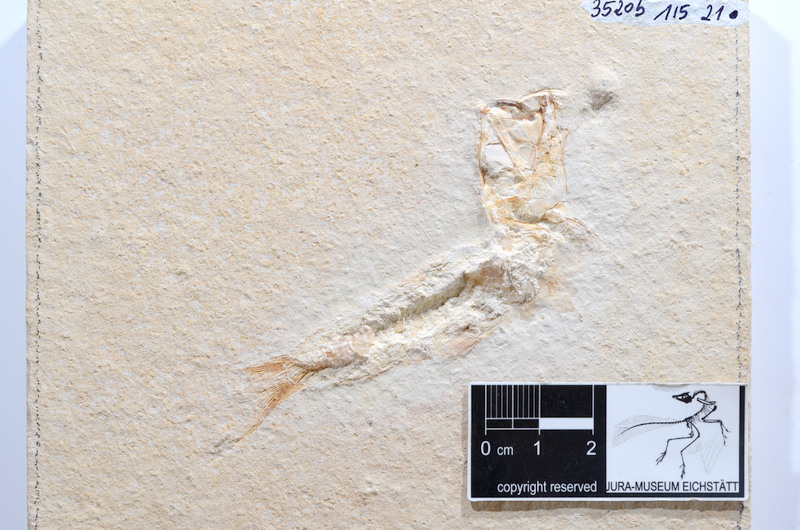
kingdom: Animalia
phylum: Chordata
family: Ascalaboidae
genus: Tharsis
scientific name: Tharsis dubius
